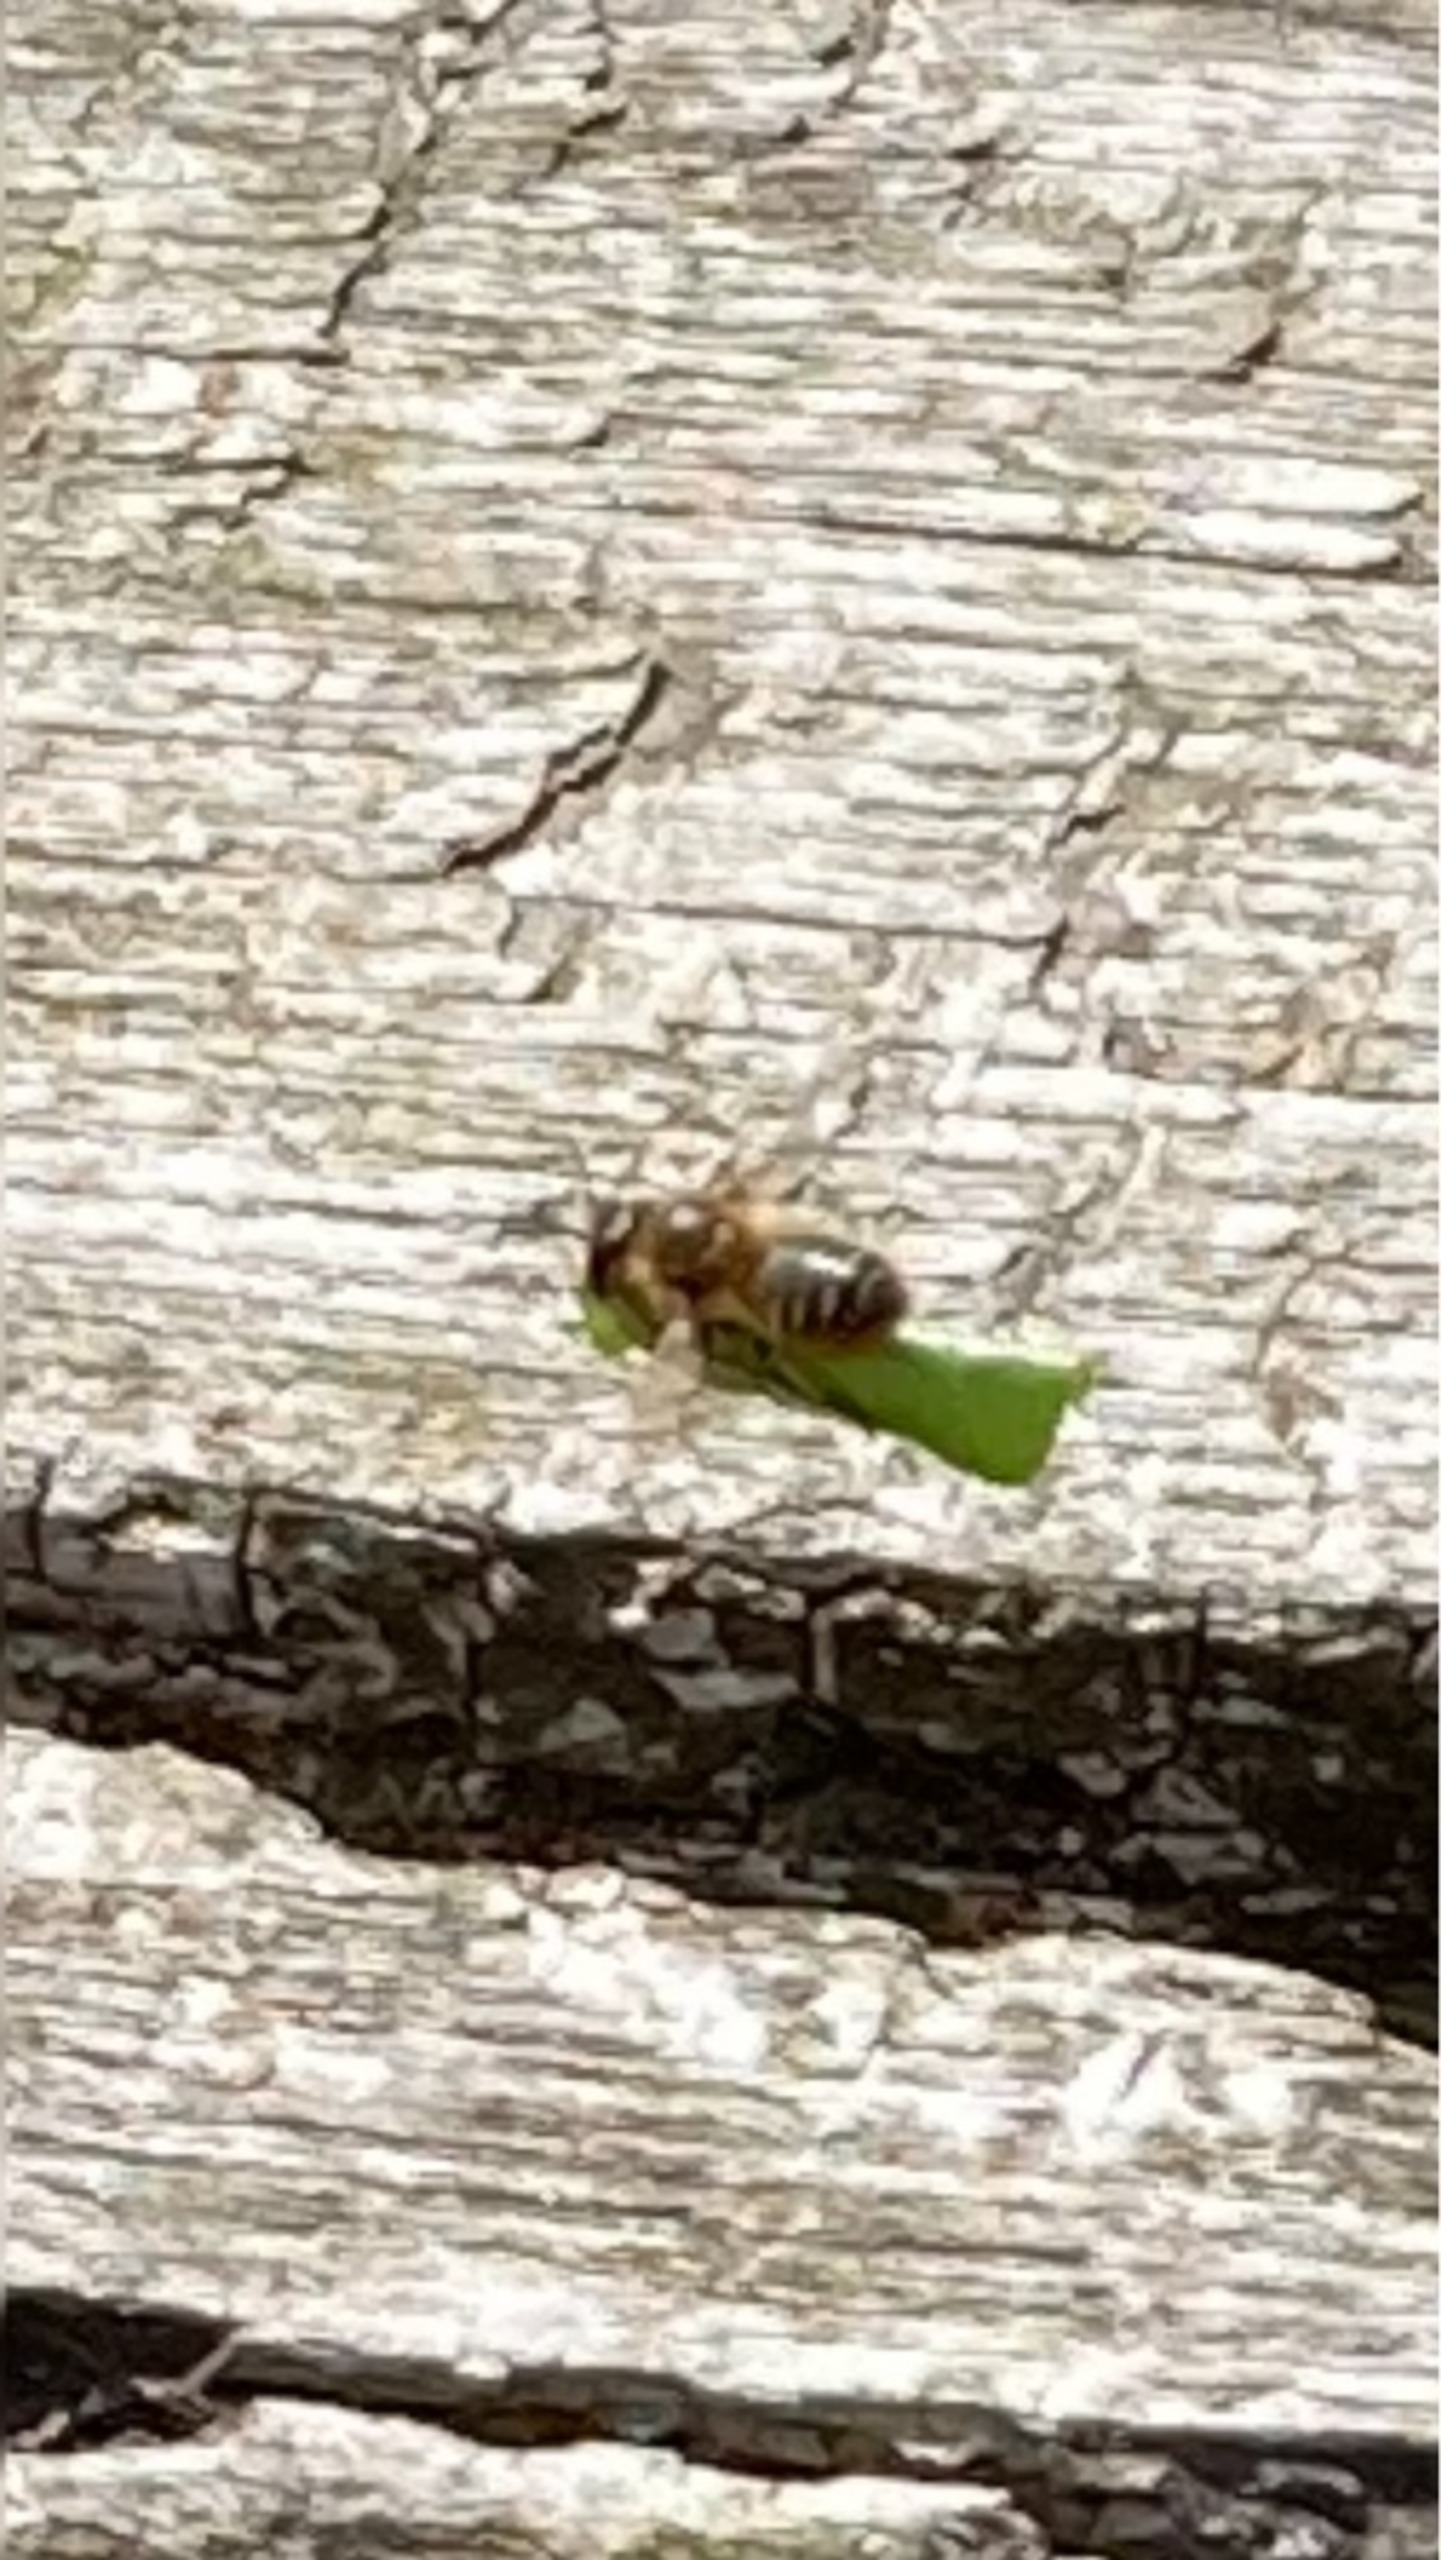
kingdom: Animalia
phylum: Arthropoda
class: Insecta
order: Hymenoptera
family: Megachilidae
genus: Megachile
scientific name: Megachile
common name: Bladskærerbier
